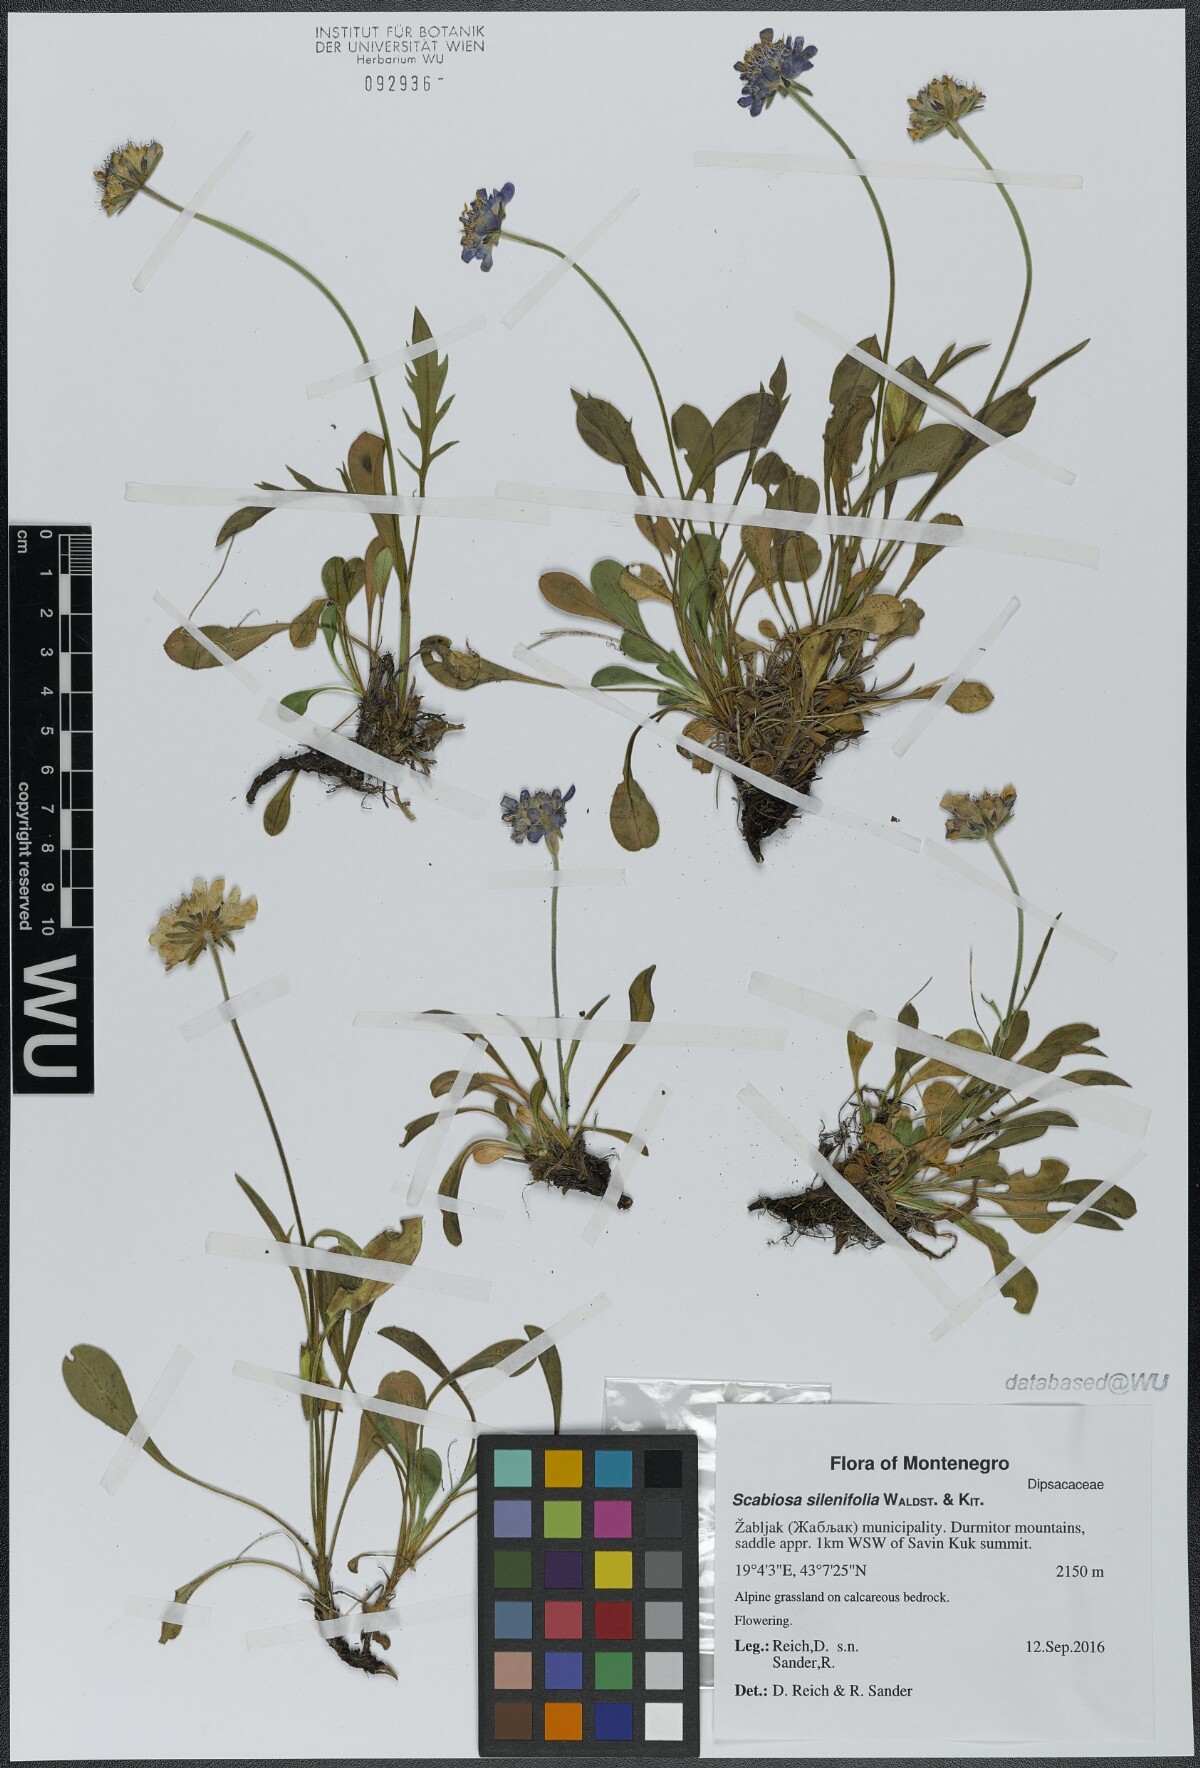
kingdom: Plantae
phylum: Tracheophyta
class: Magnoliopsida
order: Dipsacales
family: Caprifoliaceae
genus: Scabiosa
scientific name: Scabiosa silenifolia
